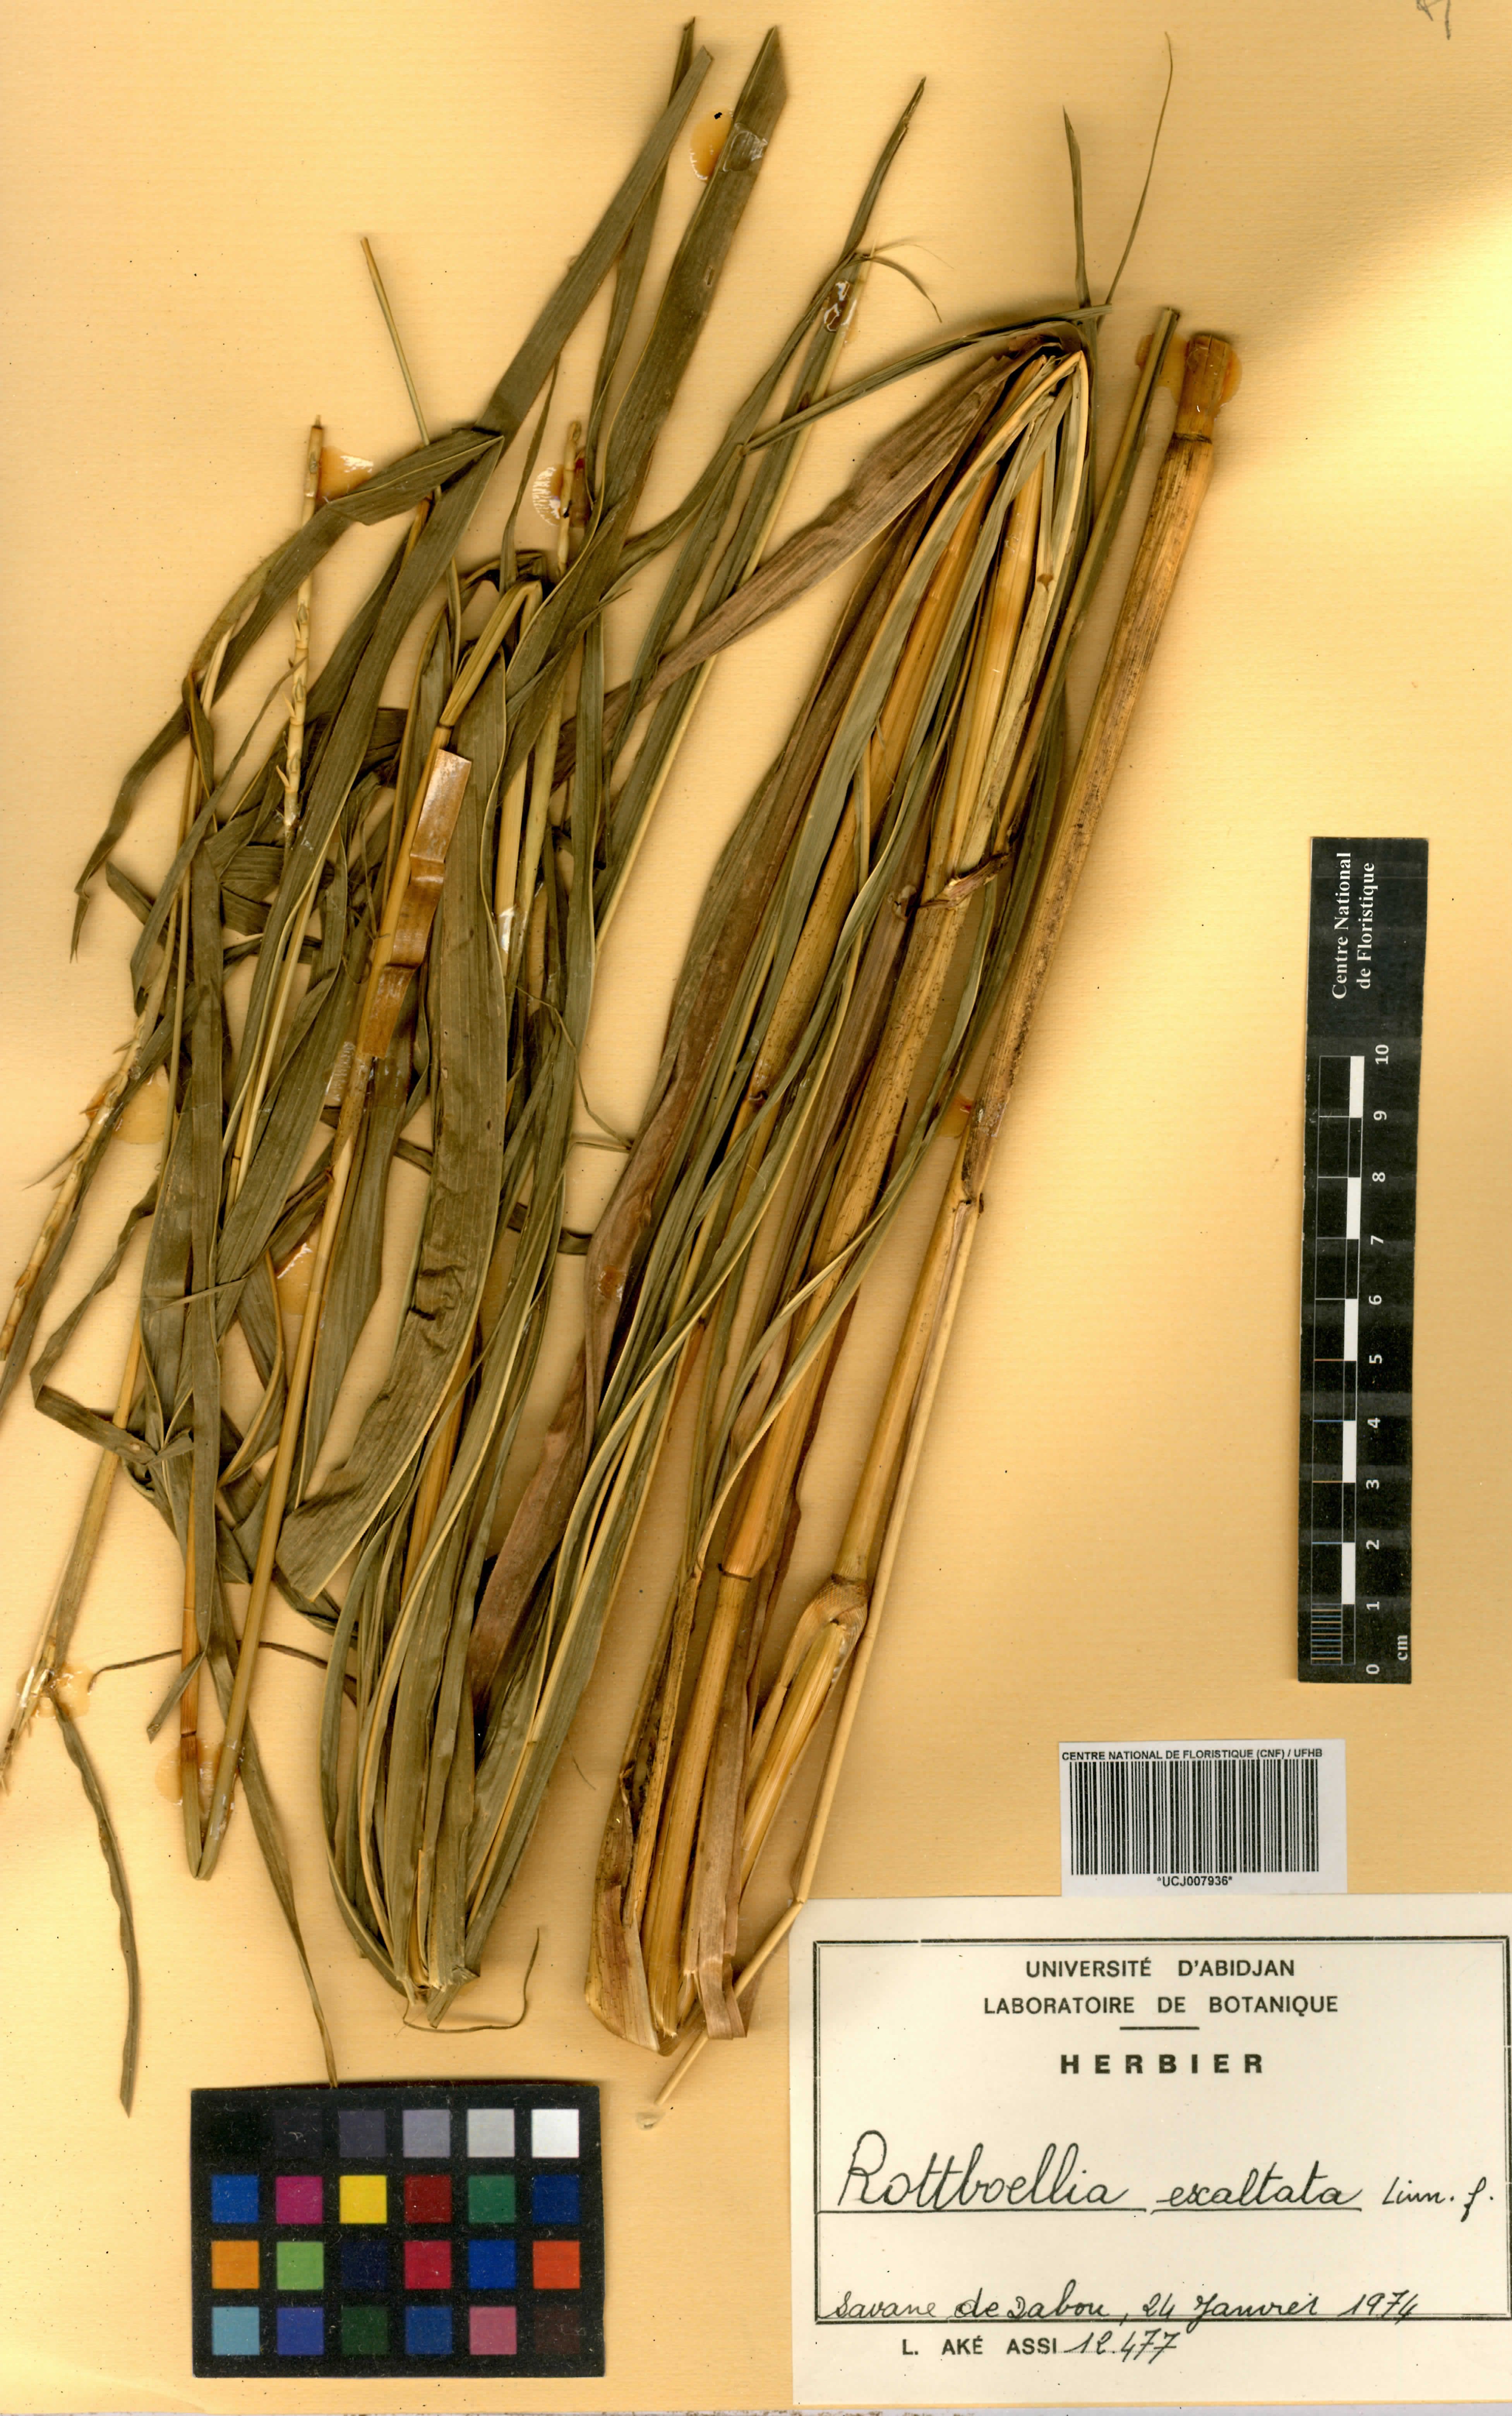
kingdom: Plantae
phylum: Tracheophyta
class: Liliopsida
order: Poales
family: Poaceae
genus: Rottboellia
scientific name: Rottboellia
